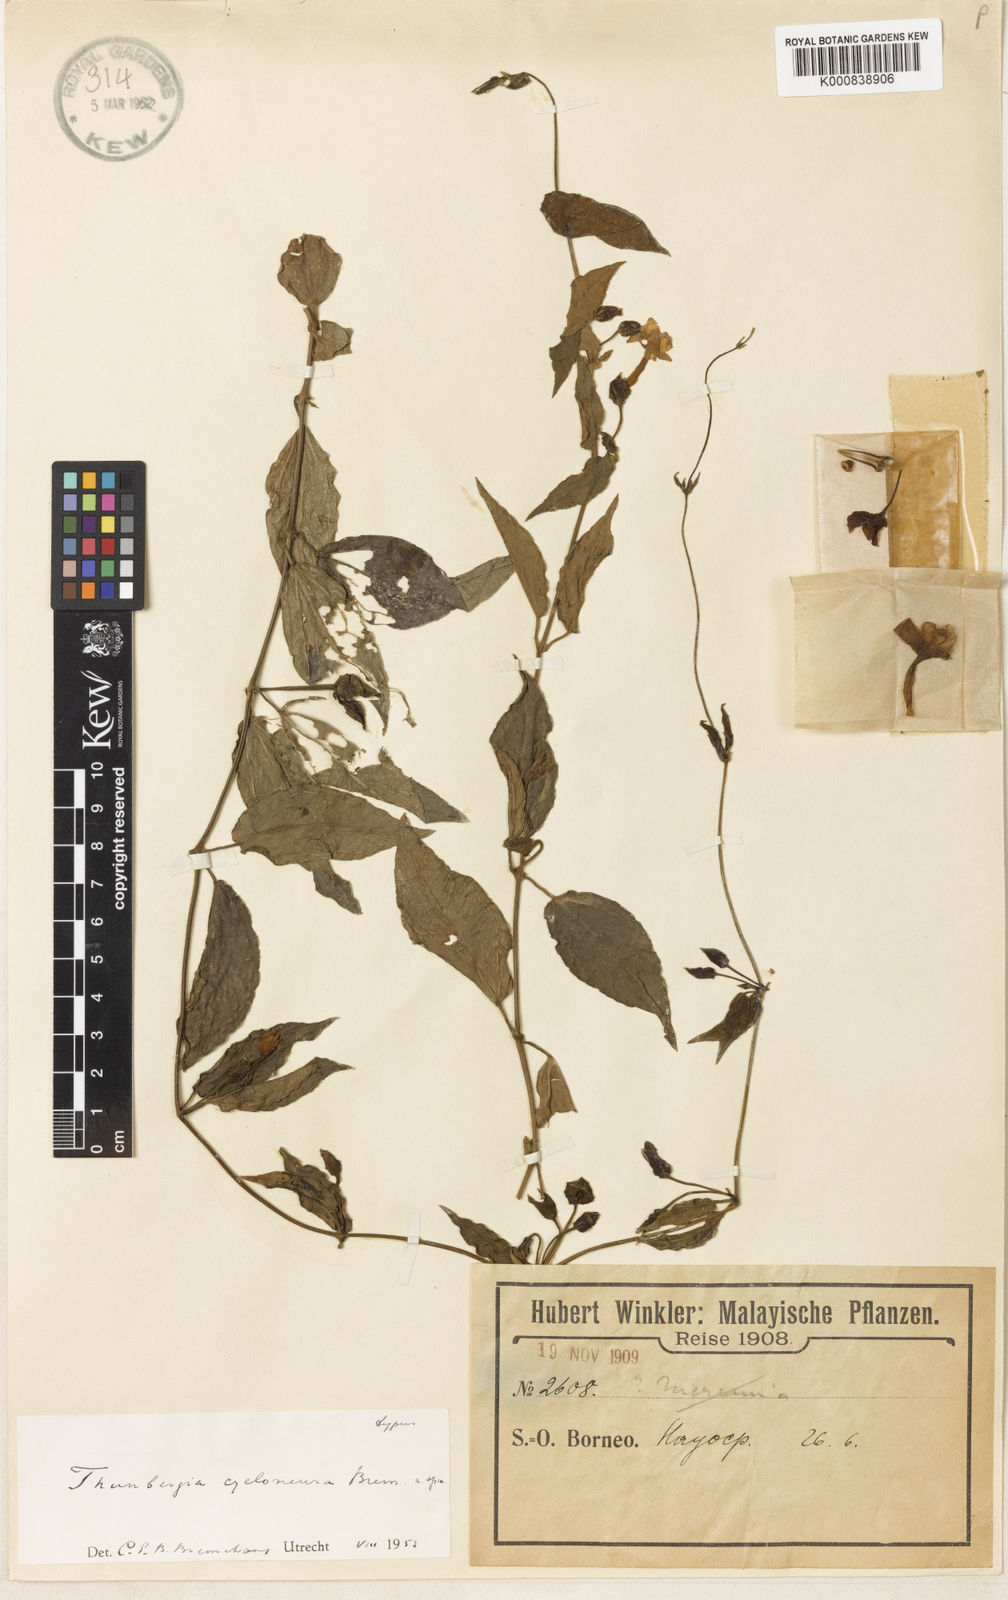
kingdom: Plantae
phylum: Tracheophyta
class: Magnoliopsida
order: Lamiales
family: Acanthaceae
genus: Thunbergia
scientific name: Thunbergia cycloneura
